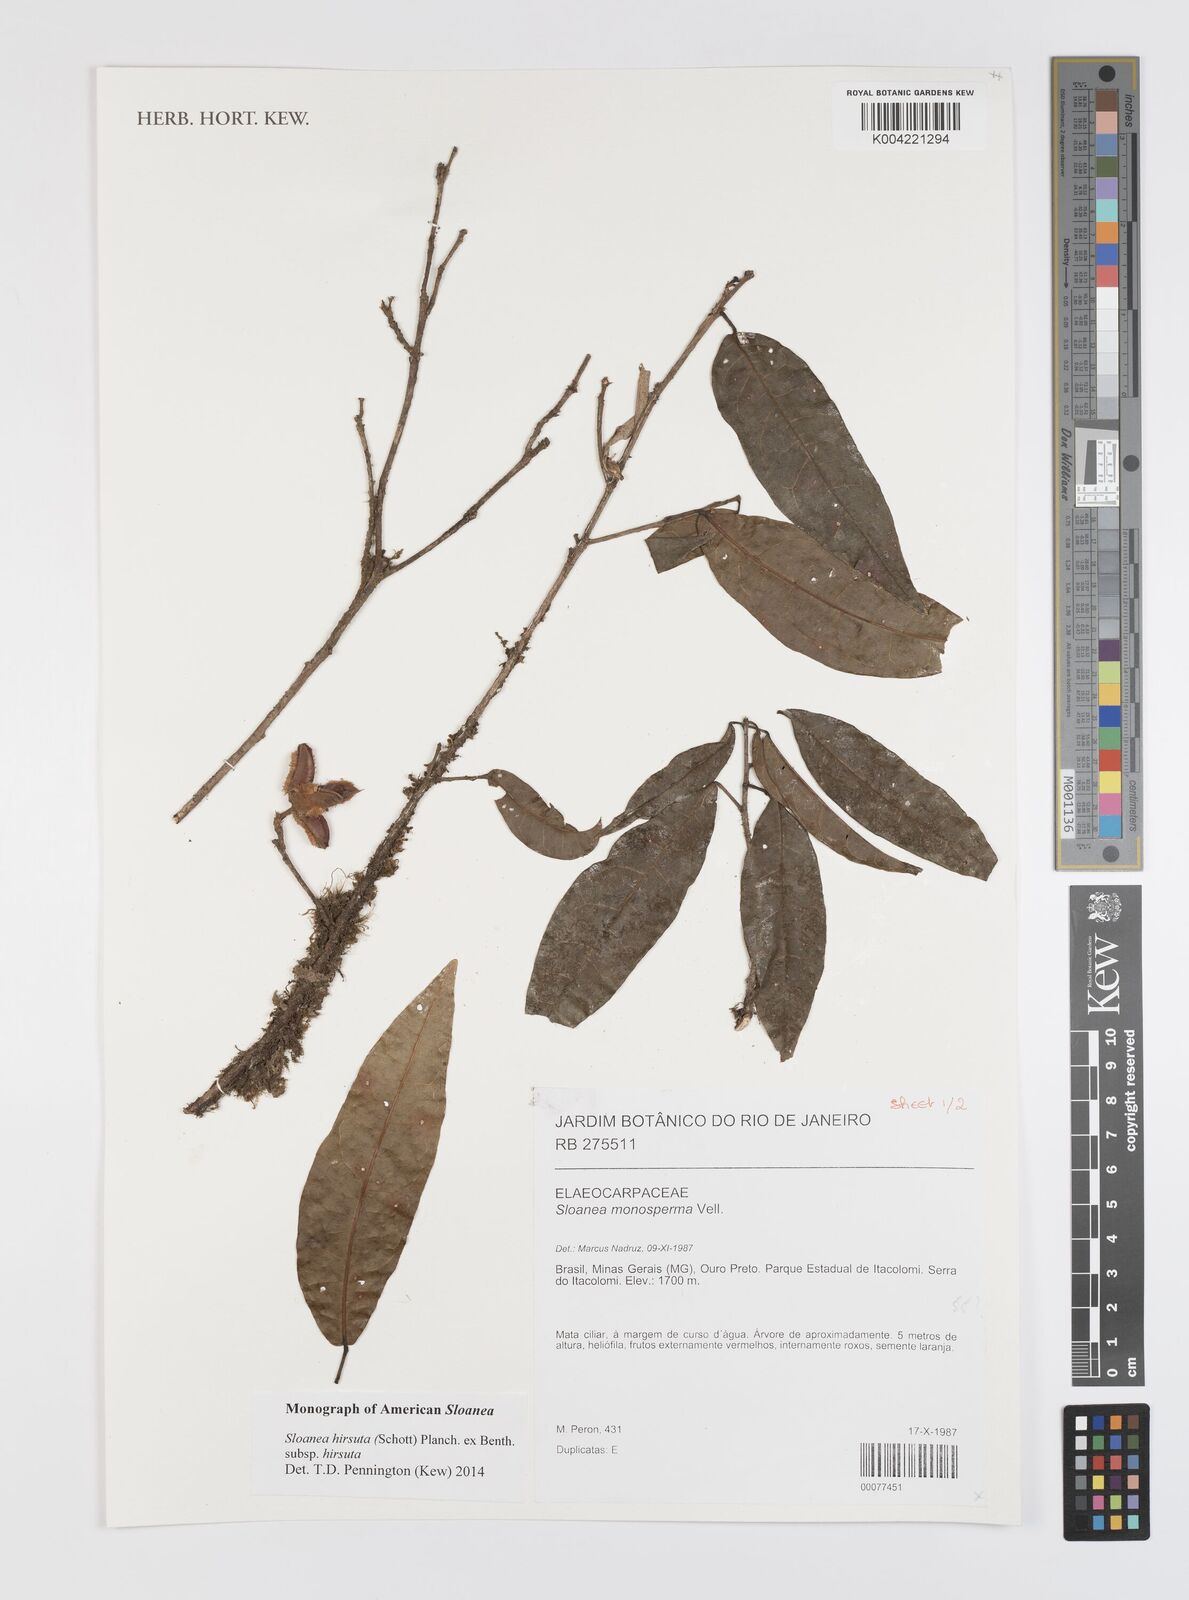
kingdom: Plantae
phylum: Tracheophyta
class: Magnoliopsida
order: Oxalidales
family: Elaeocarpaceae
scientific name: Elaeocarpaceae
